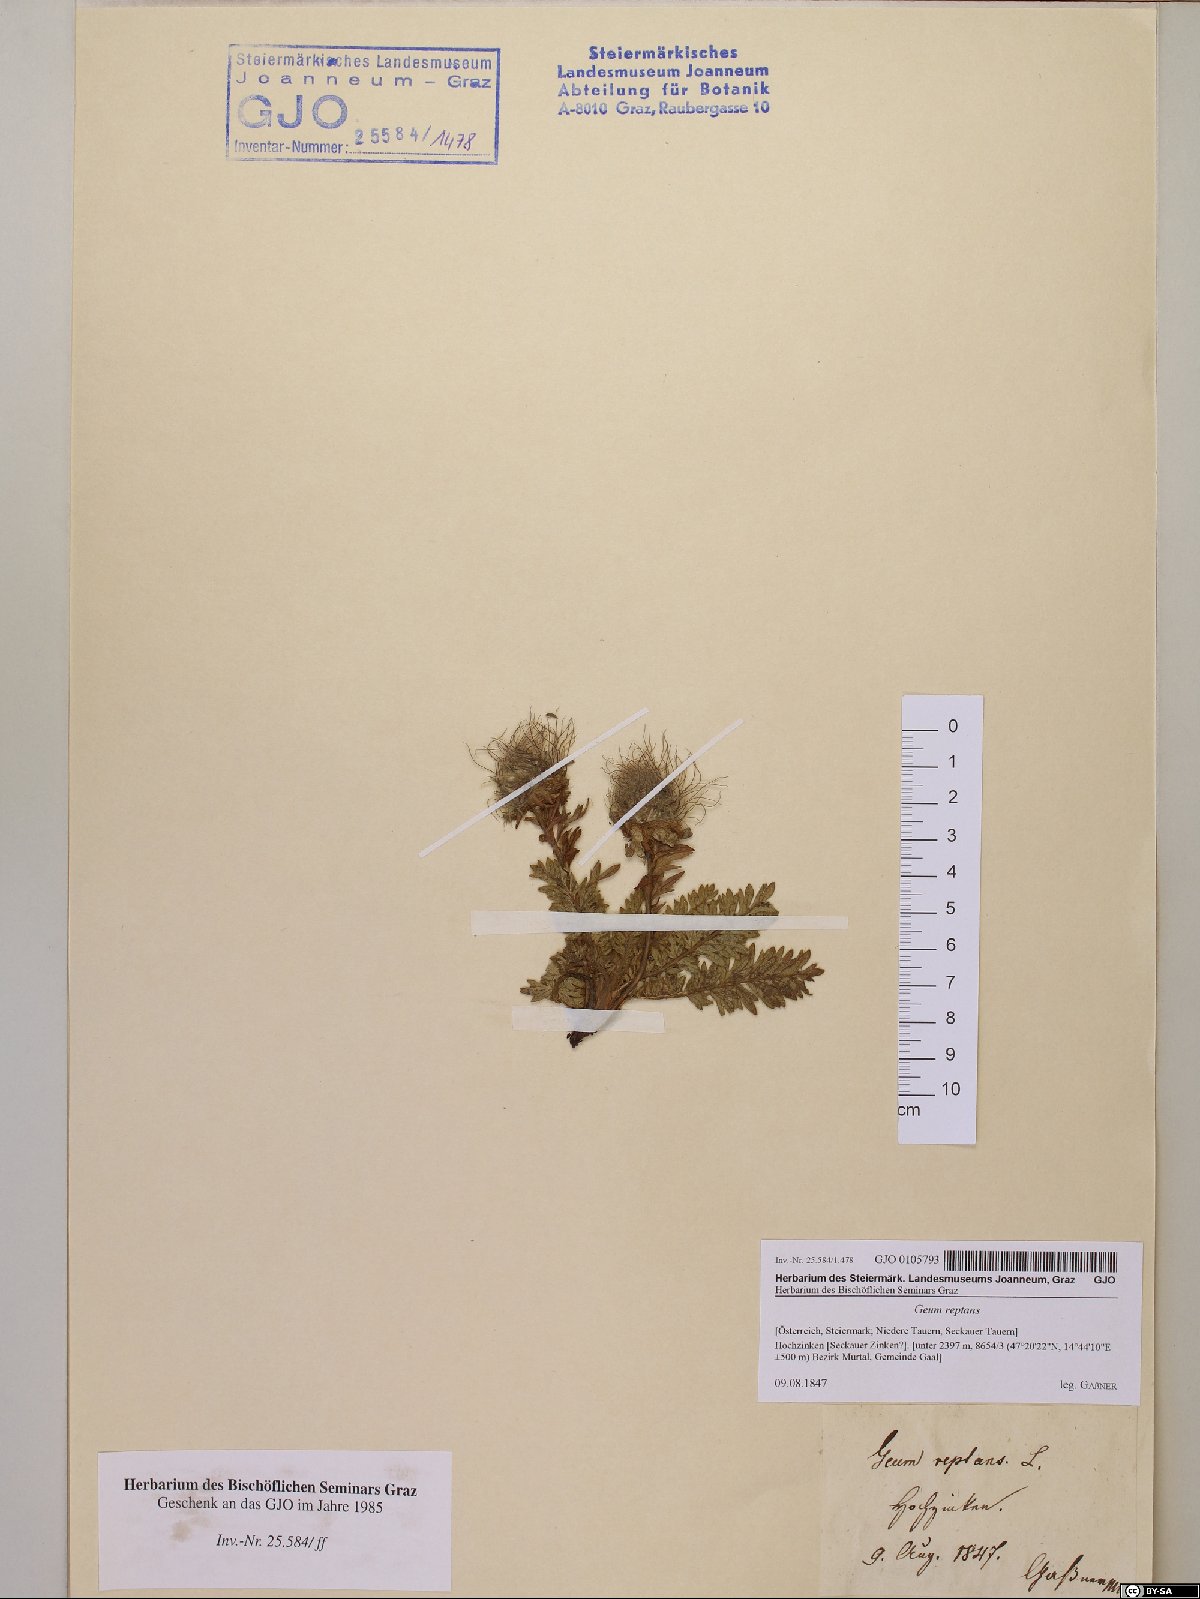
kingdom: Plantae
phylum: Tracheophyta
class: Magnoliopsida
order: Rosales
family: Rosaceae
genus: Geum
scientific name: Geum reptans
